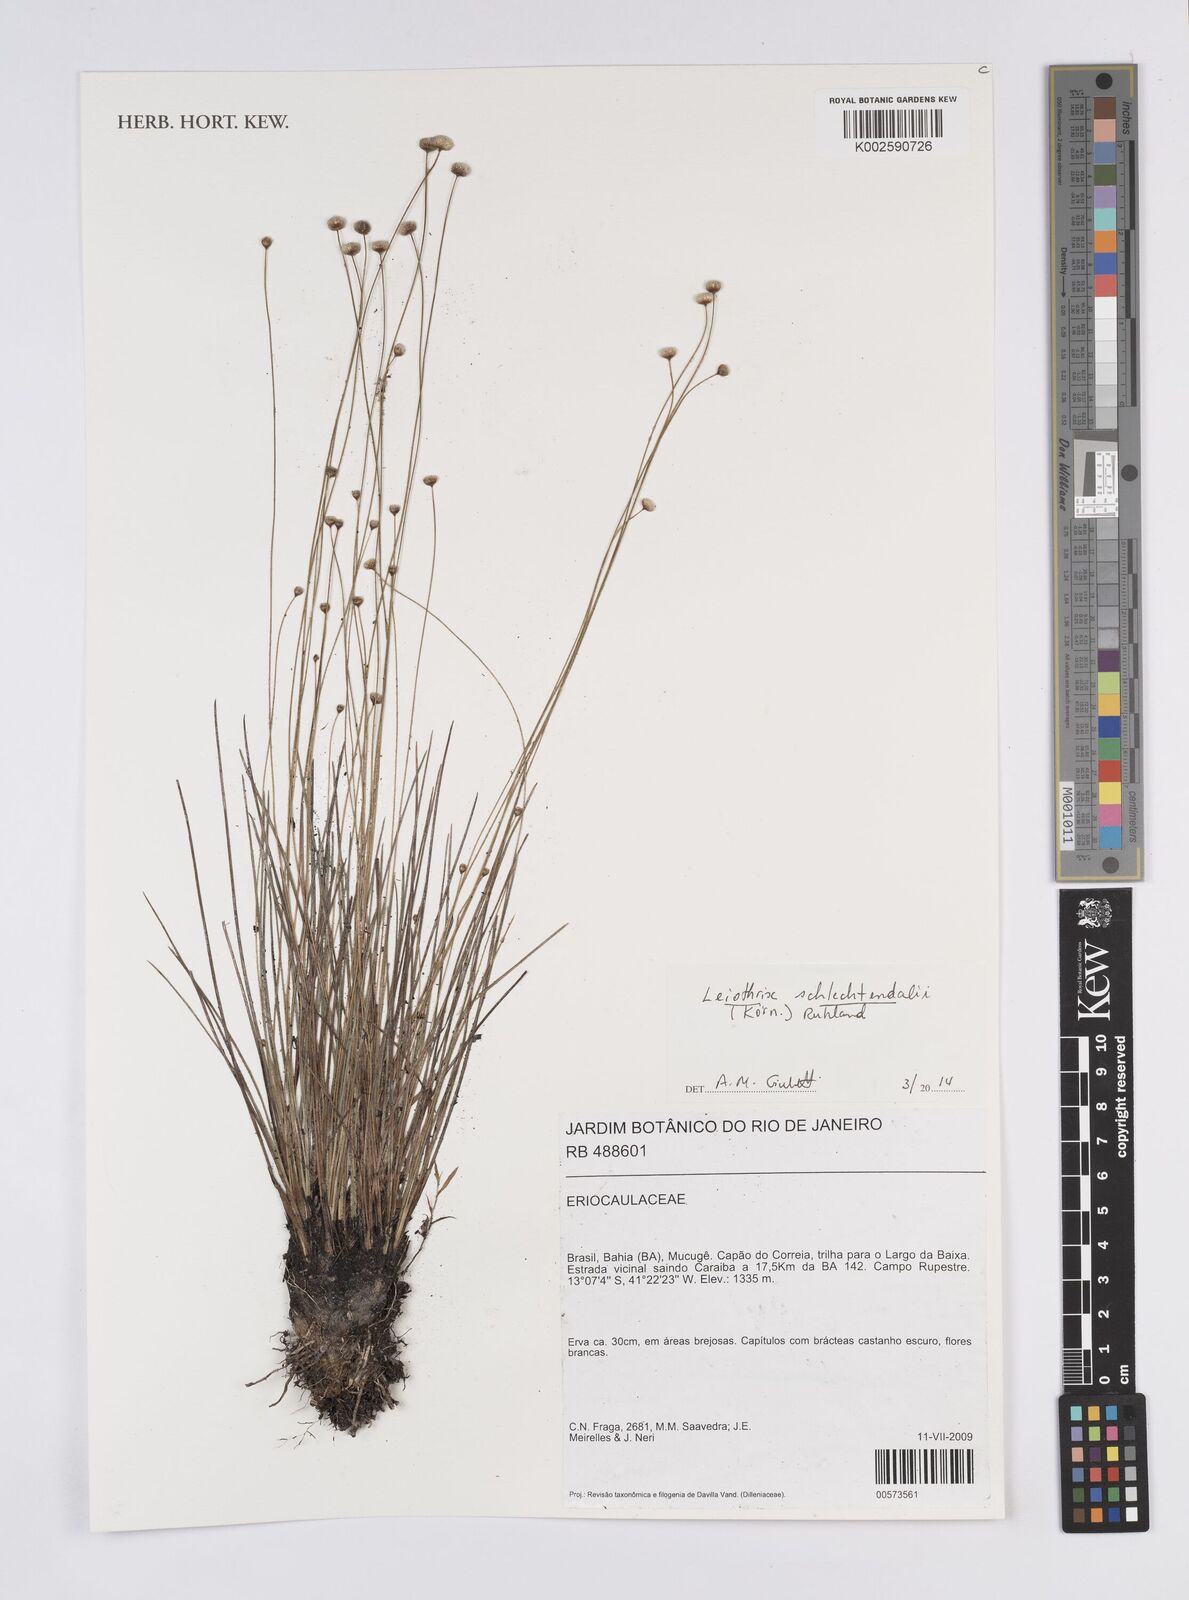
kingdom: Plantae
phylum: Tracheophyta
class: Liliopsida
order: Poales
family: Eriocaulaceae
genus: Leiothrix
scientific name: Leiothrix schlechtendalii
